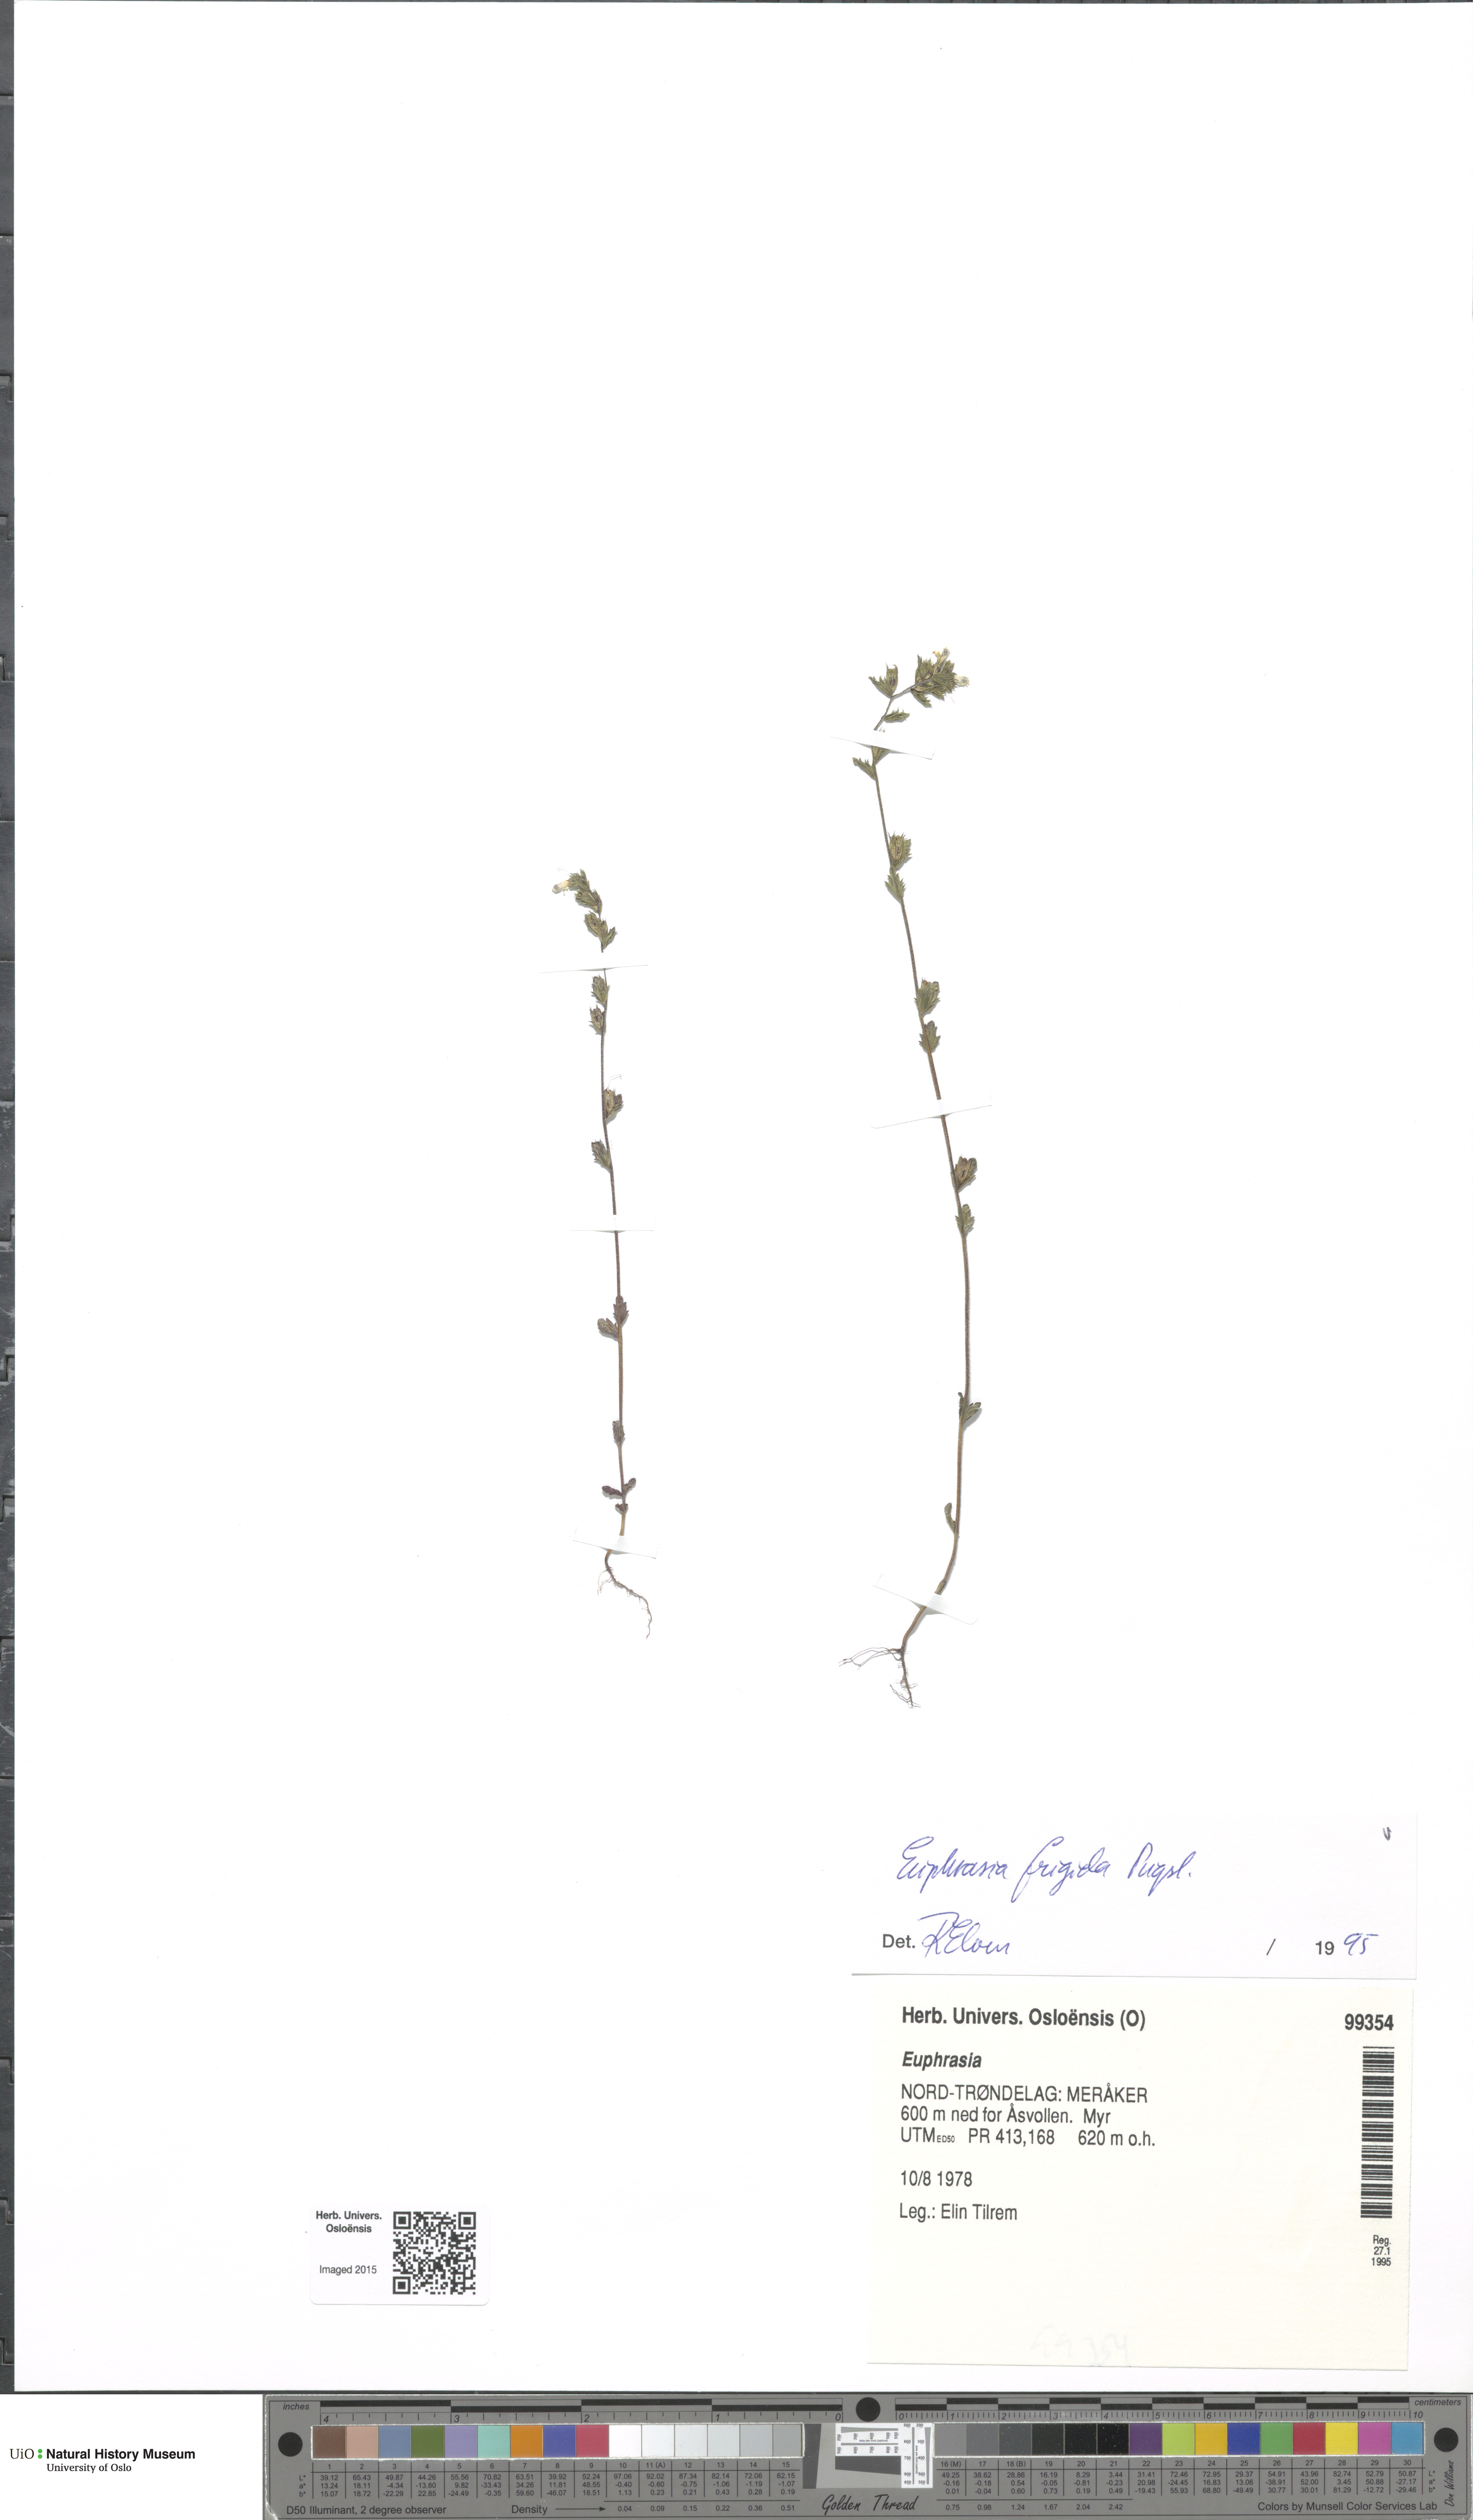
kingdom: Plantae
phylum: Tracheophyta
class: Magnoliopsida
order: Lamiales
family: Orobanchaceae
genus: Euphrasia
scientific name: Euphrasia frigida
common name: An eyebright
